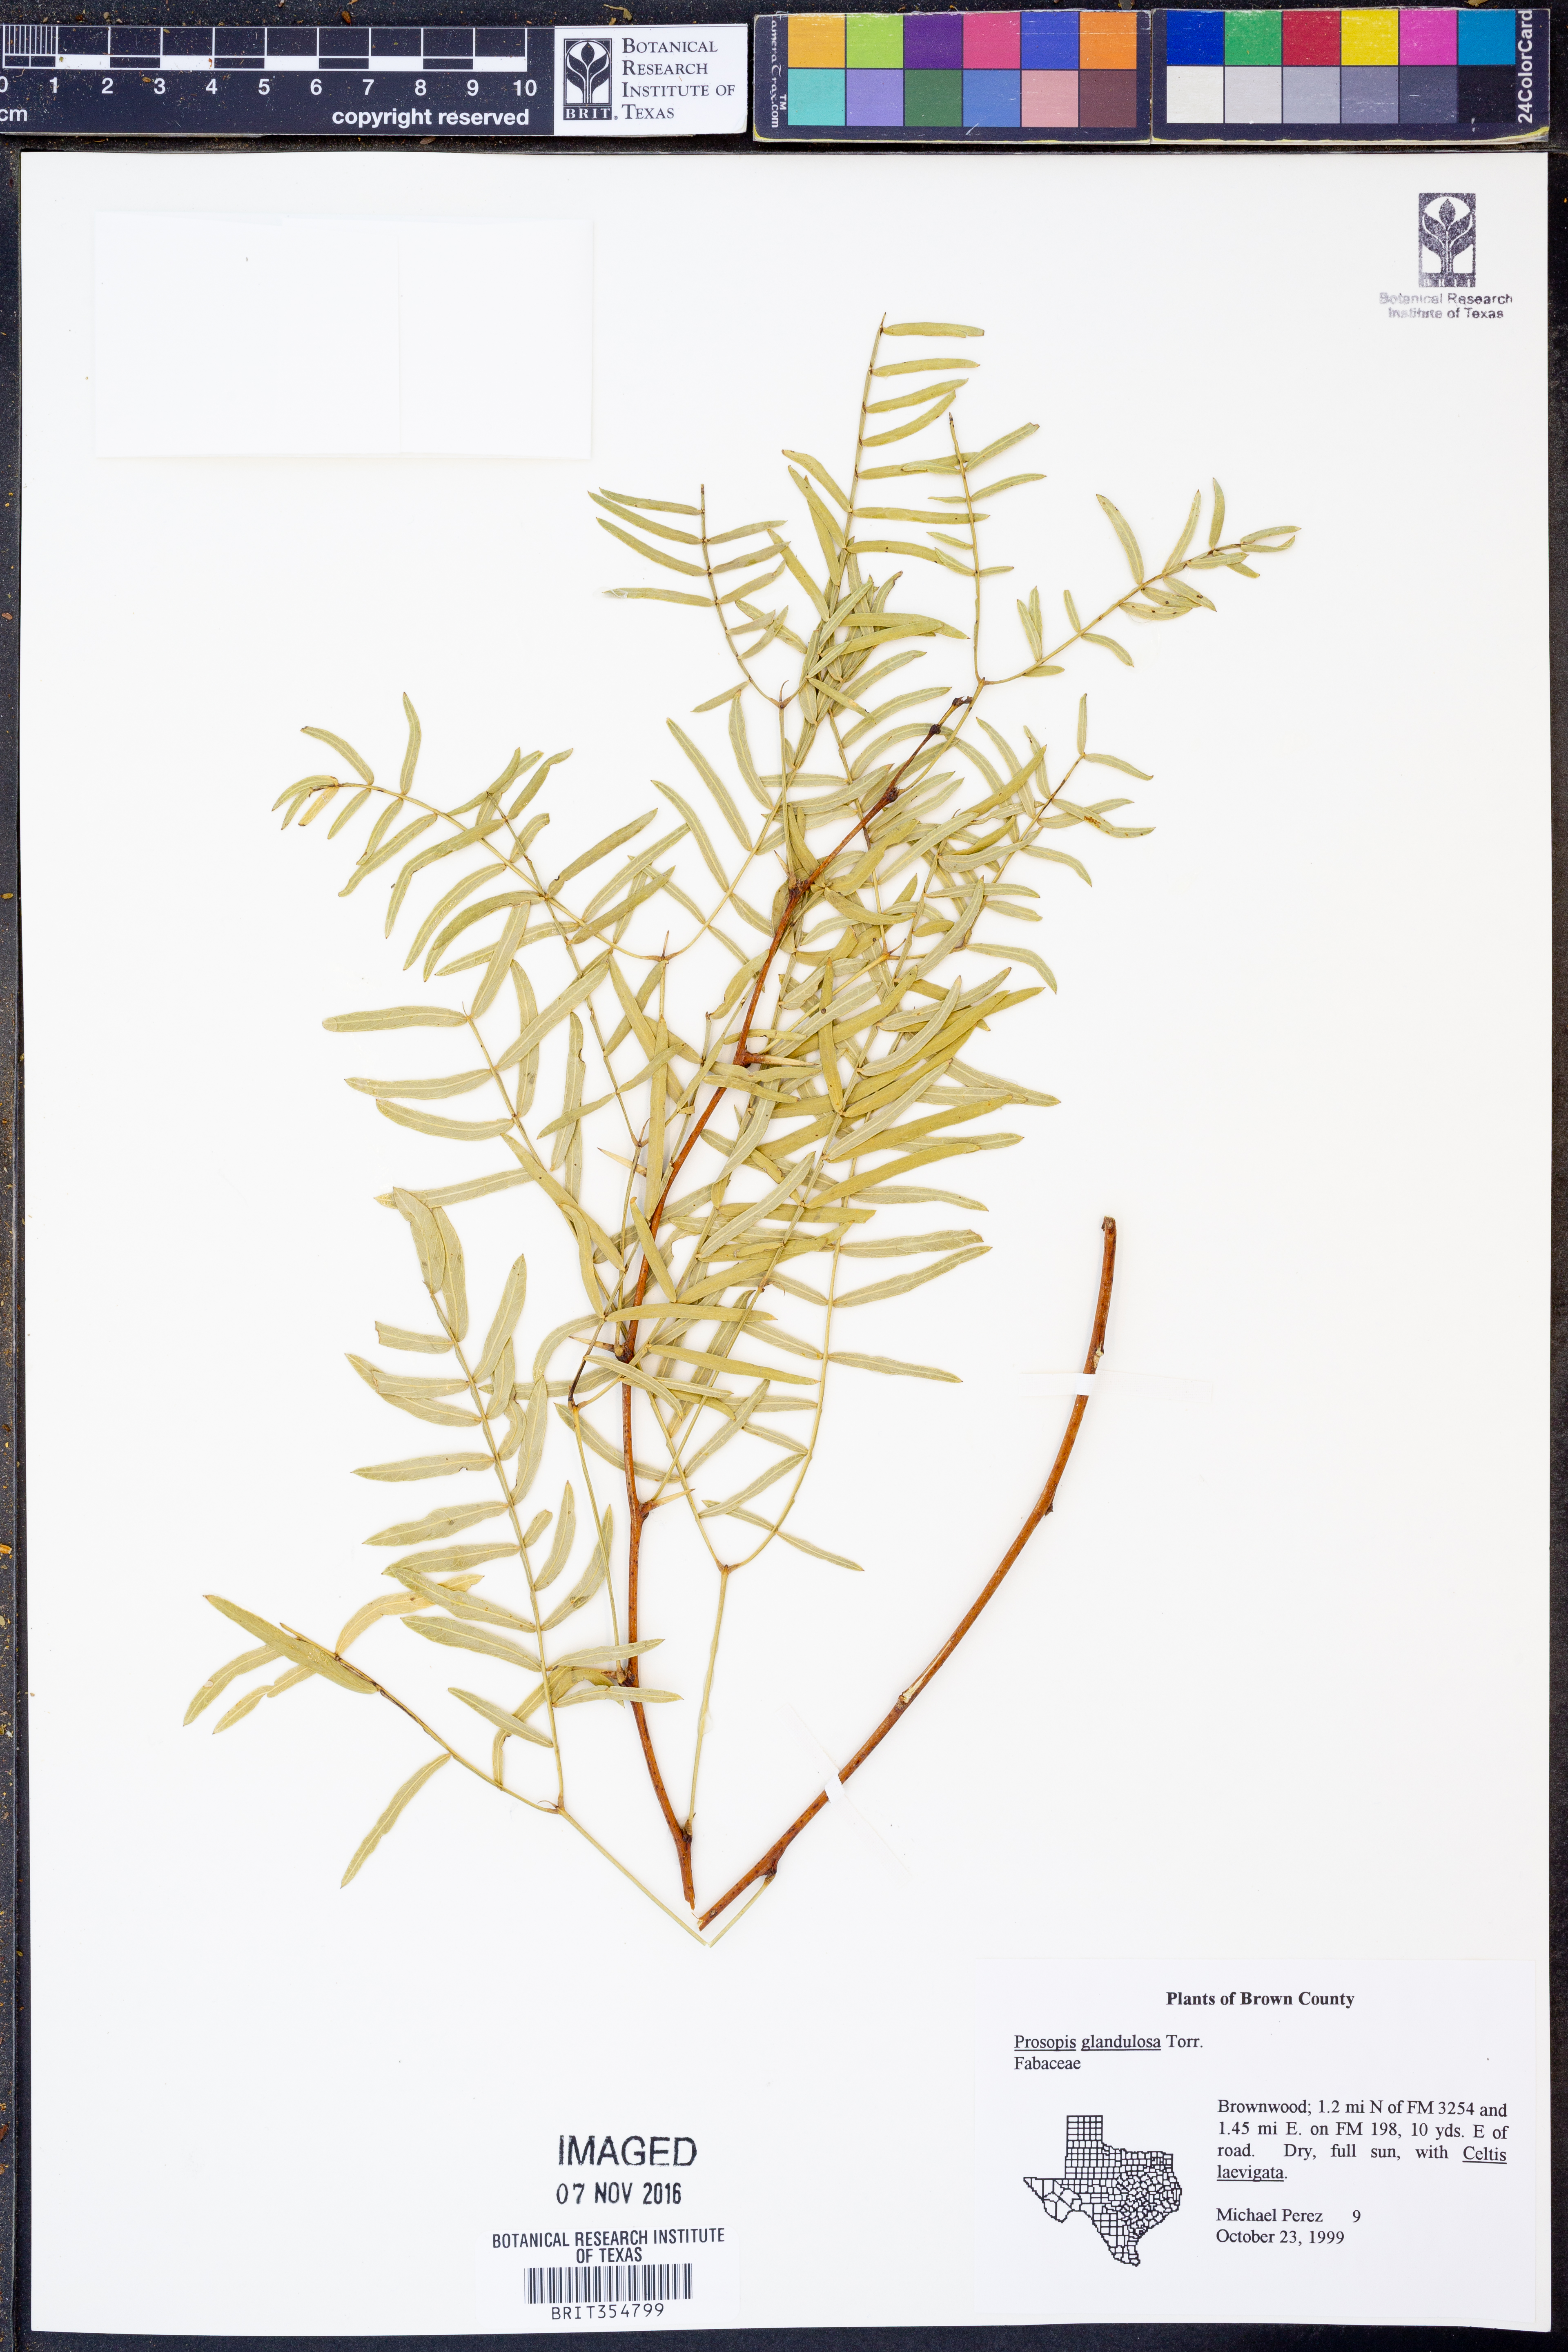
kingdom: Plantae
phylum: Tracheophyta
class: Magnoliopsida
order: Fabales
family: Fabaceae
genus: Prosopis
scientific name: Prosopis glandulosa
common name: Honey mesquite
